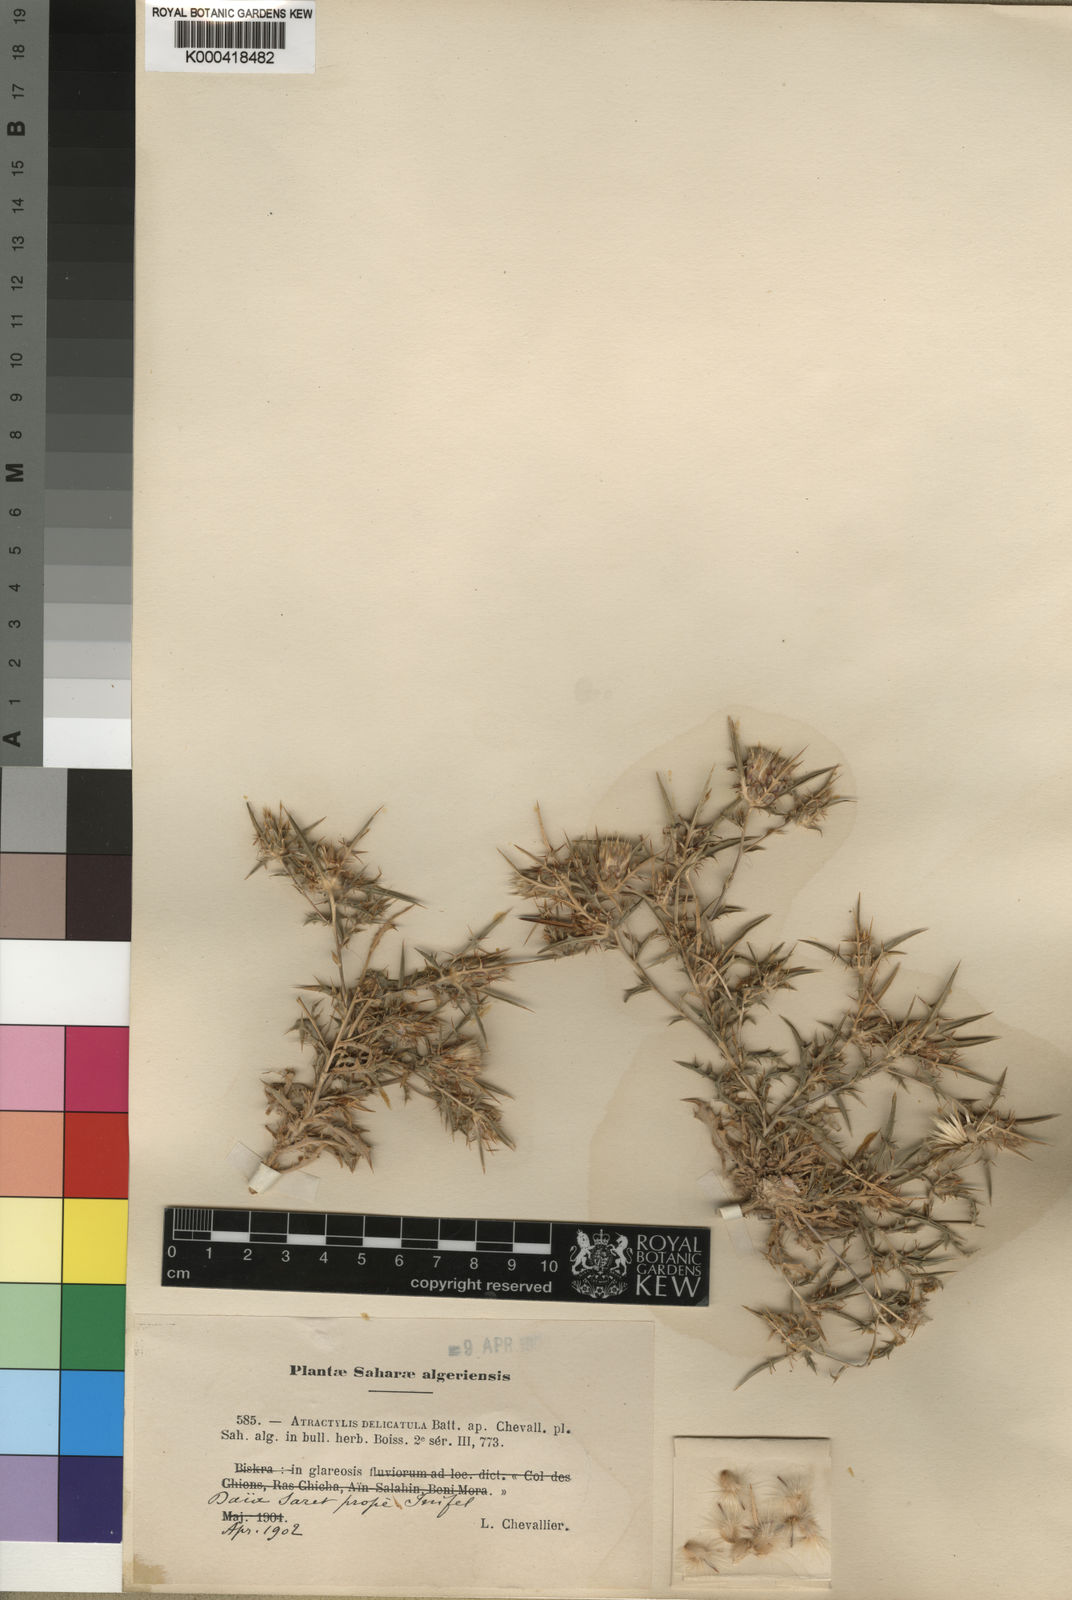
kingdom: Plantae
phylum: Tracheophyta
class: Magnoliopsida
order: Asterales
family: Asteraceae
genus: Atractylis
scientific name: Atractylis delicatula
